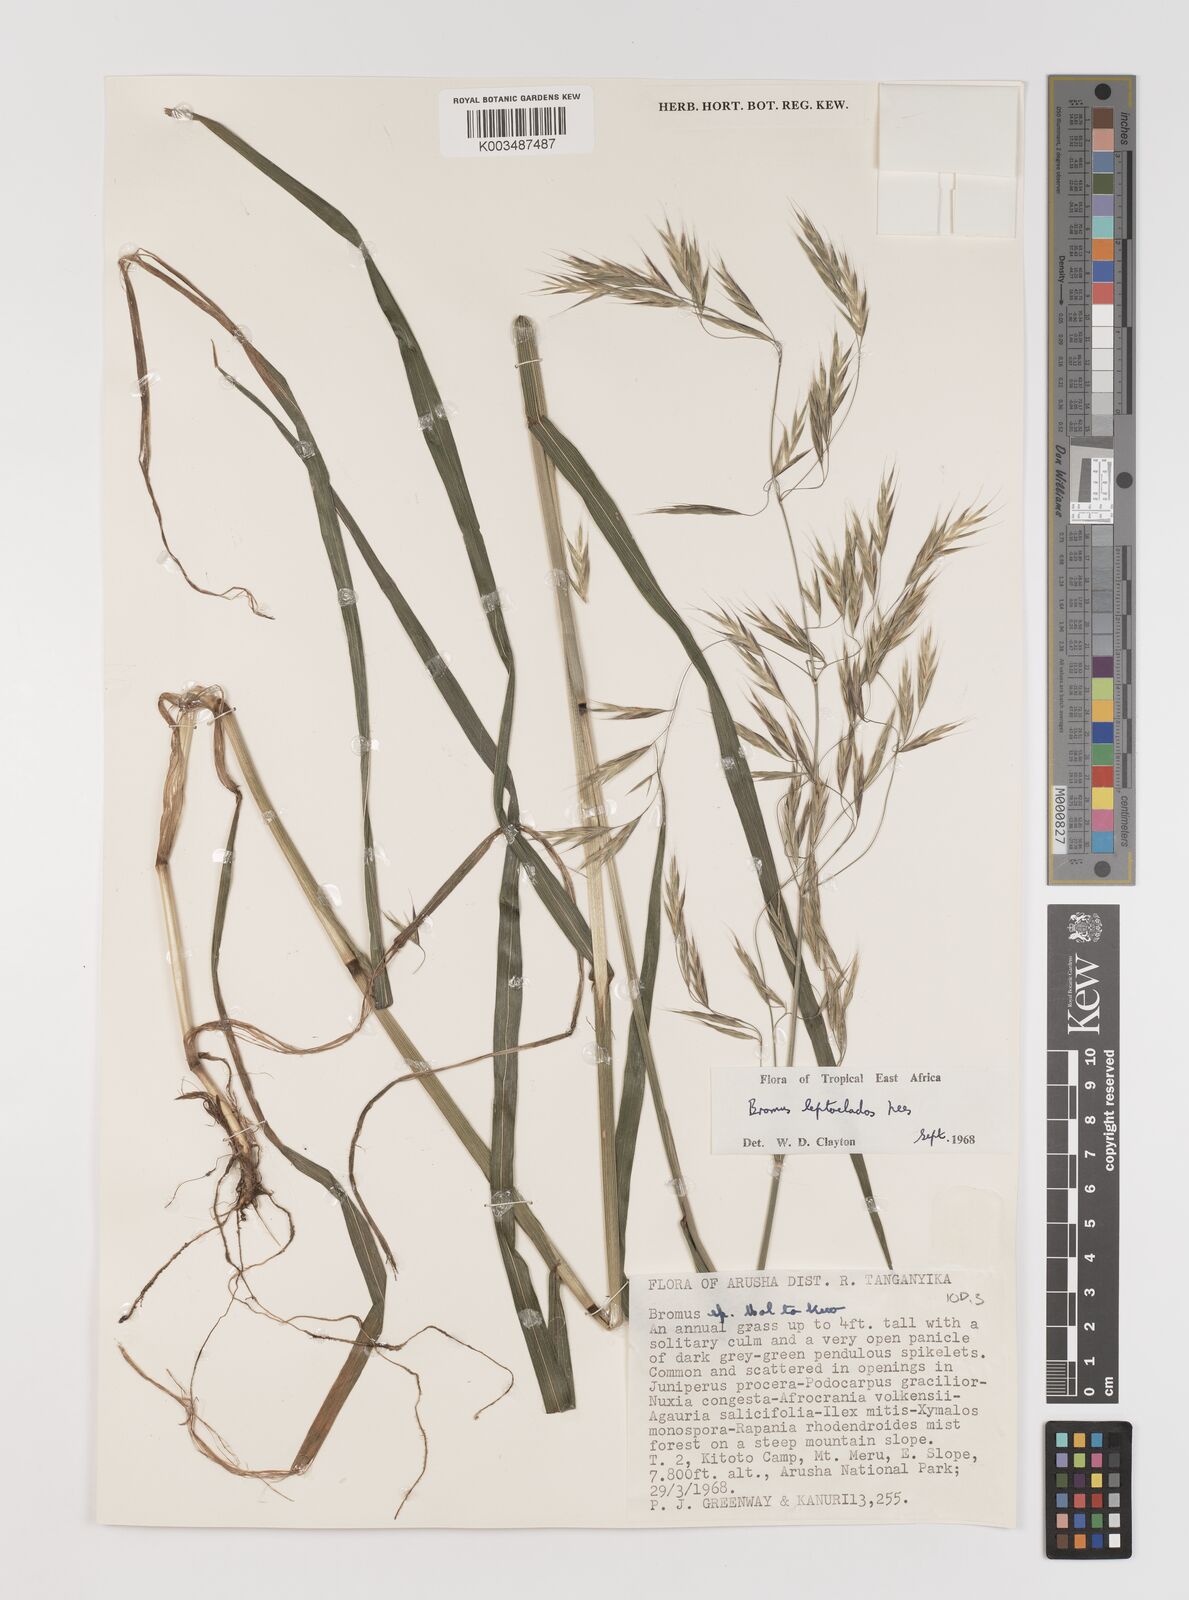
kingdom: Plantae
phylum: Tracheophyta
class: Liliopsida
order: Poales
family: Poaceae
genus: Bromus
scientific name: Bromus leptoclados
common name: Mountain bromegrass
